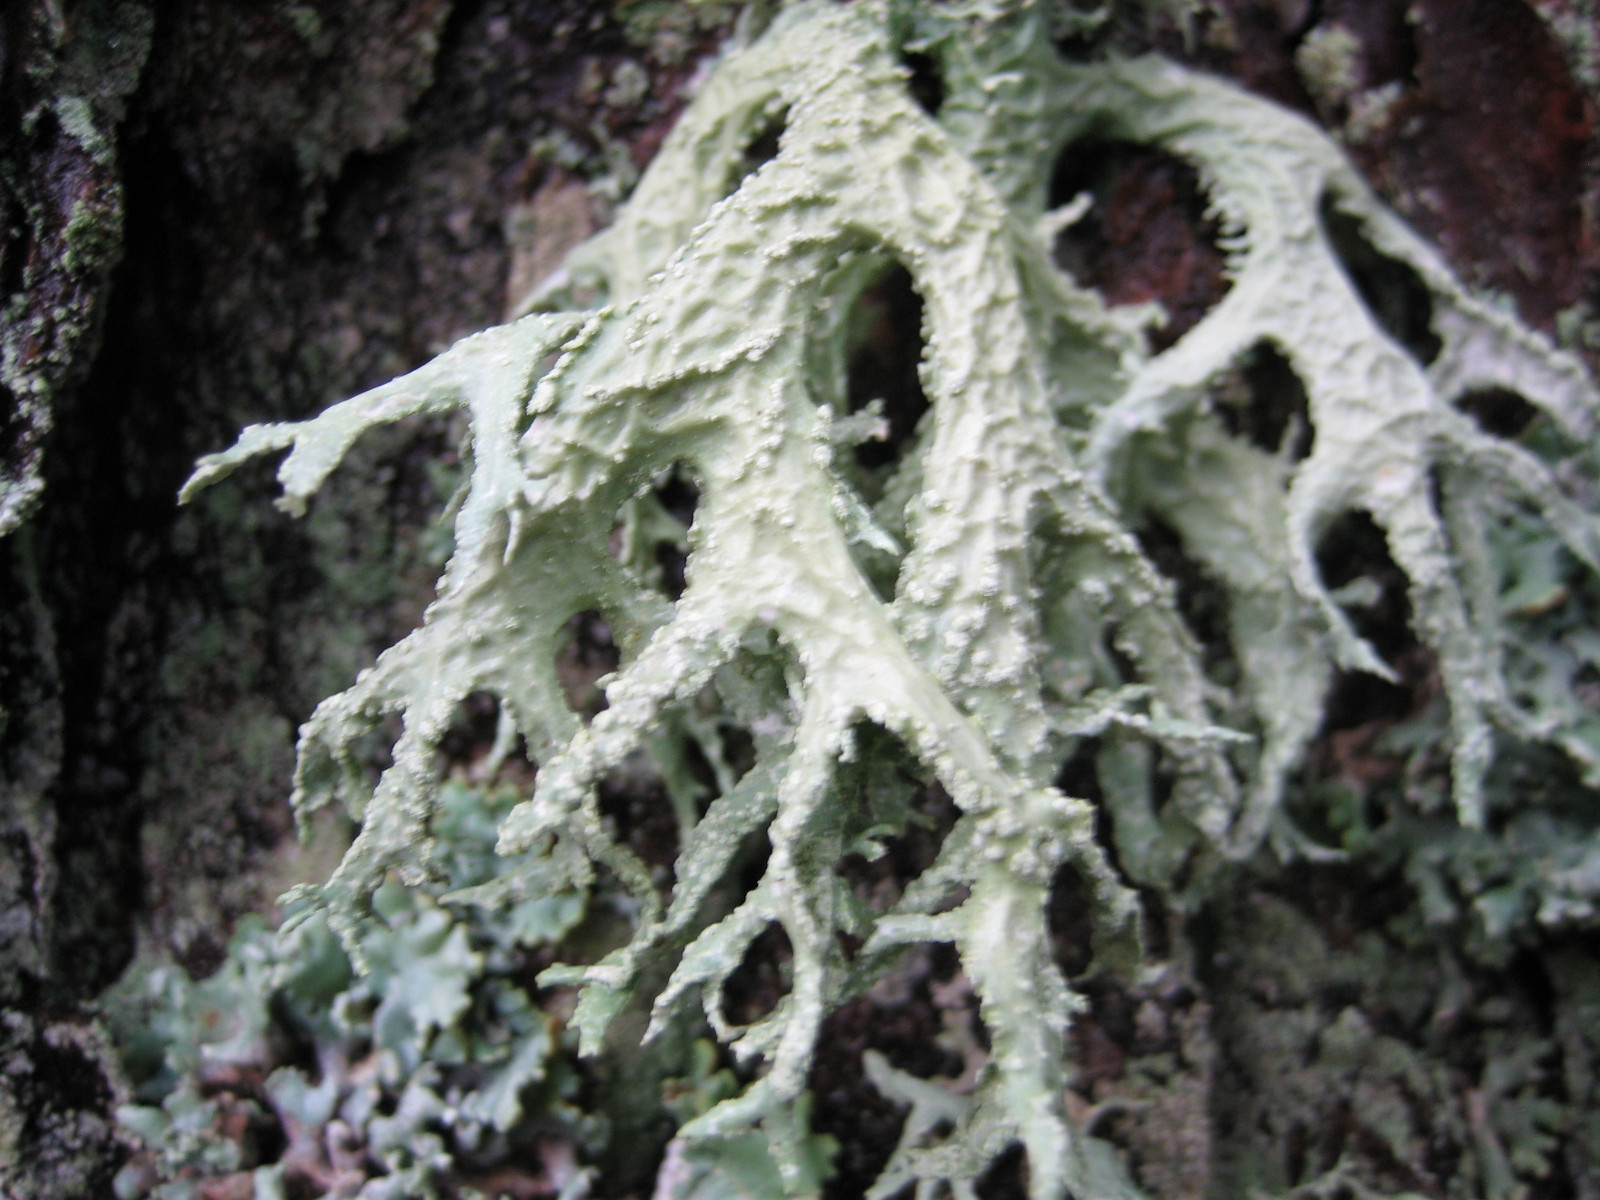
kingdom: Fungi
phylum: Ascomycota
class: Lecanoromycetes
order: Lecanorales
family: Parmeliaceae
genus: Evernia
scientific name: Evernia prunastri
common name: almindelig slåenlav
